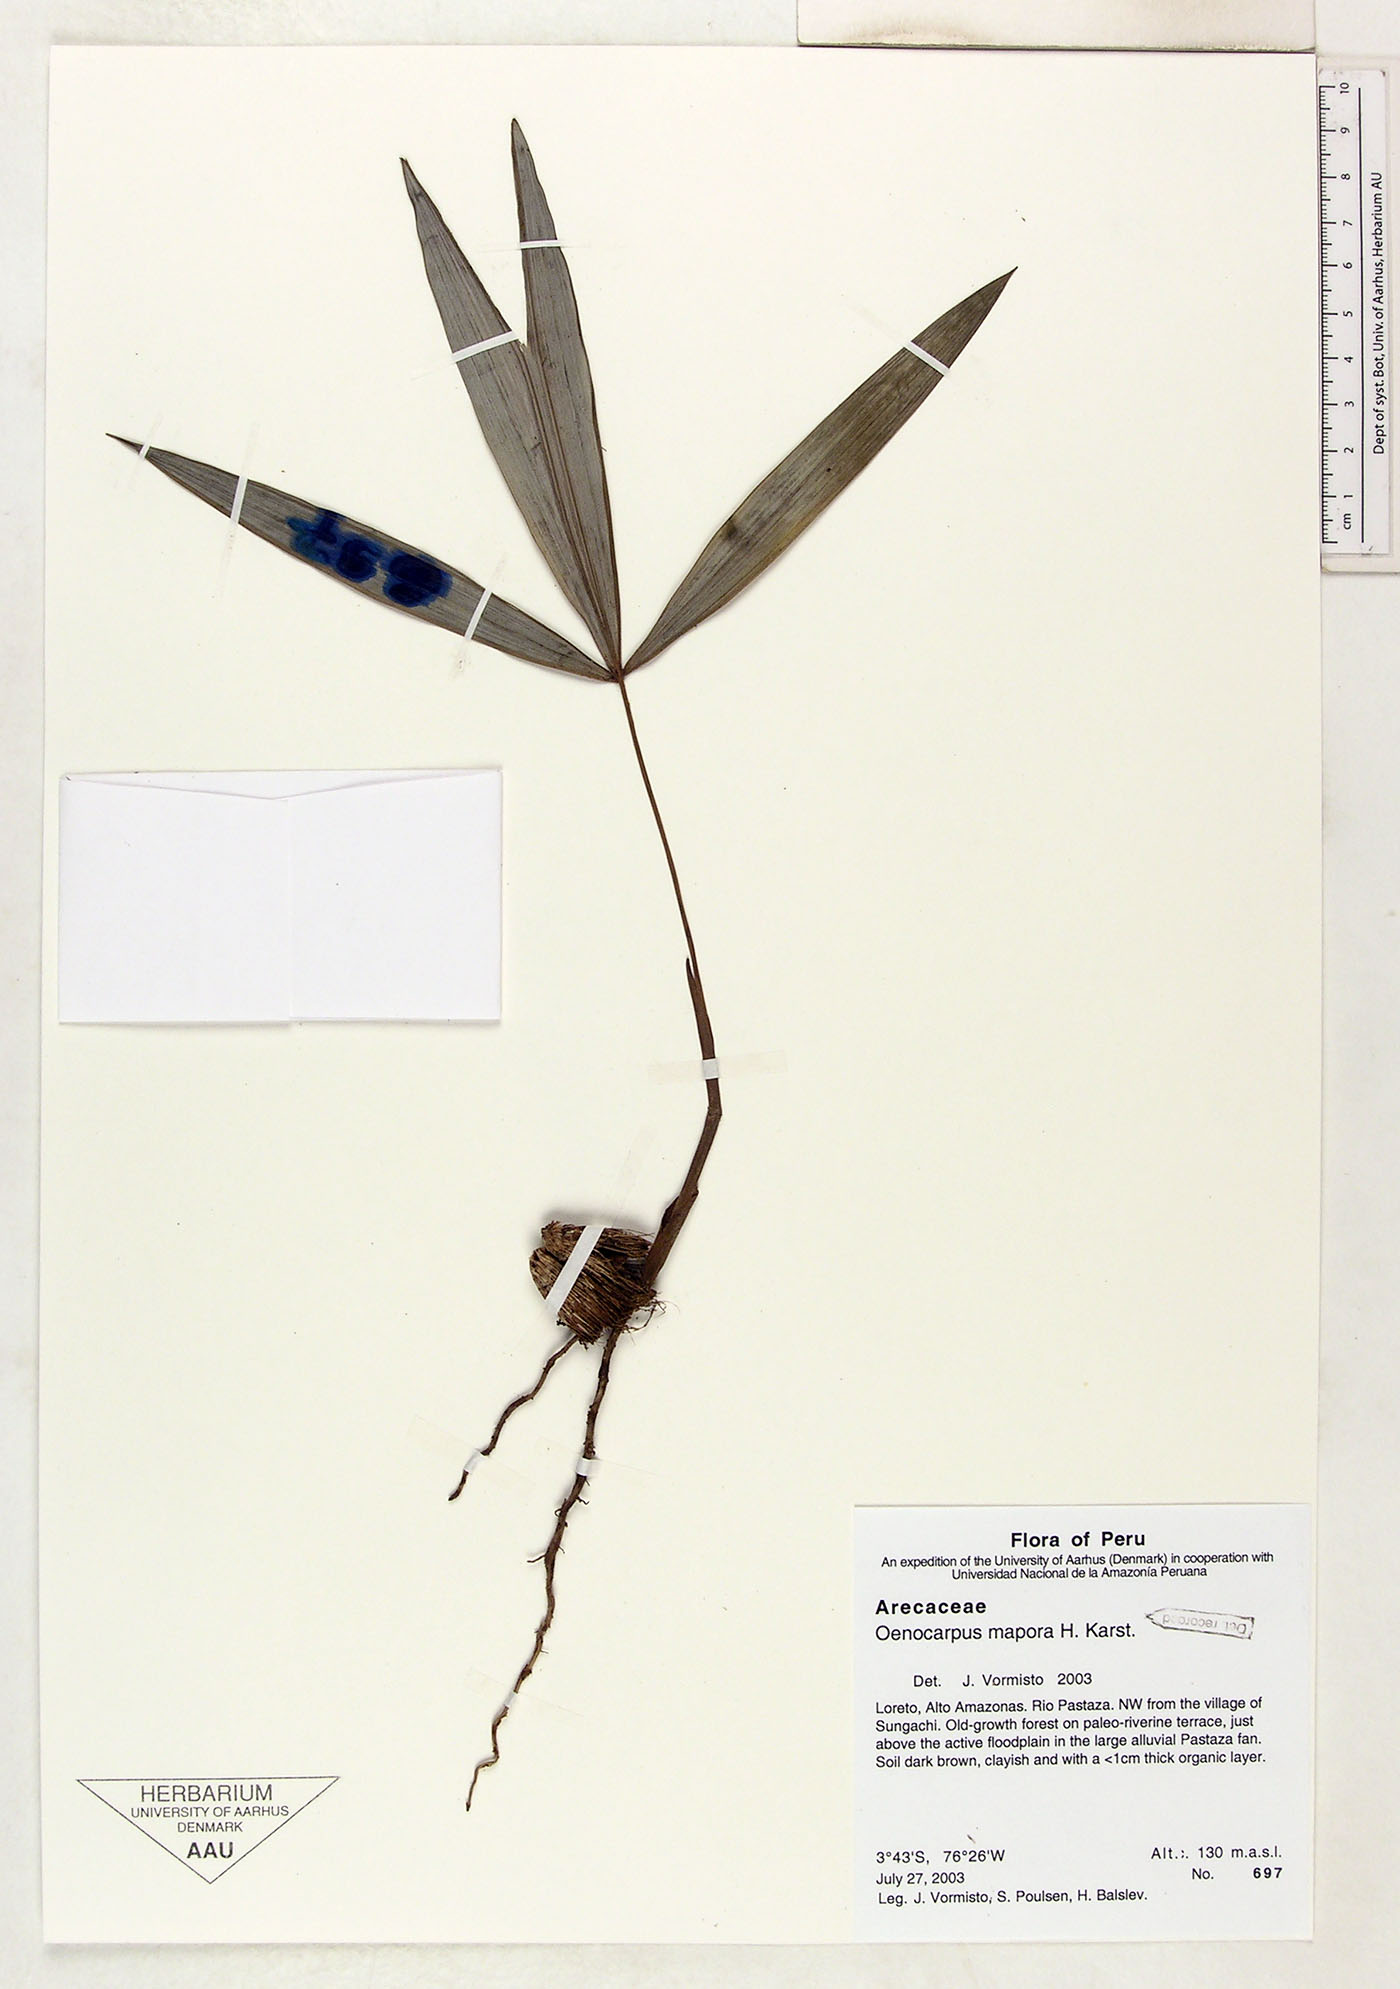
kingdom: Plantae
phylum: Tracheophyta
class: Liliopsida
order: Arecales
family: Arecaceae
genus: Oenocarpus
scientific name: Oenocarpus mapora
